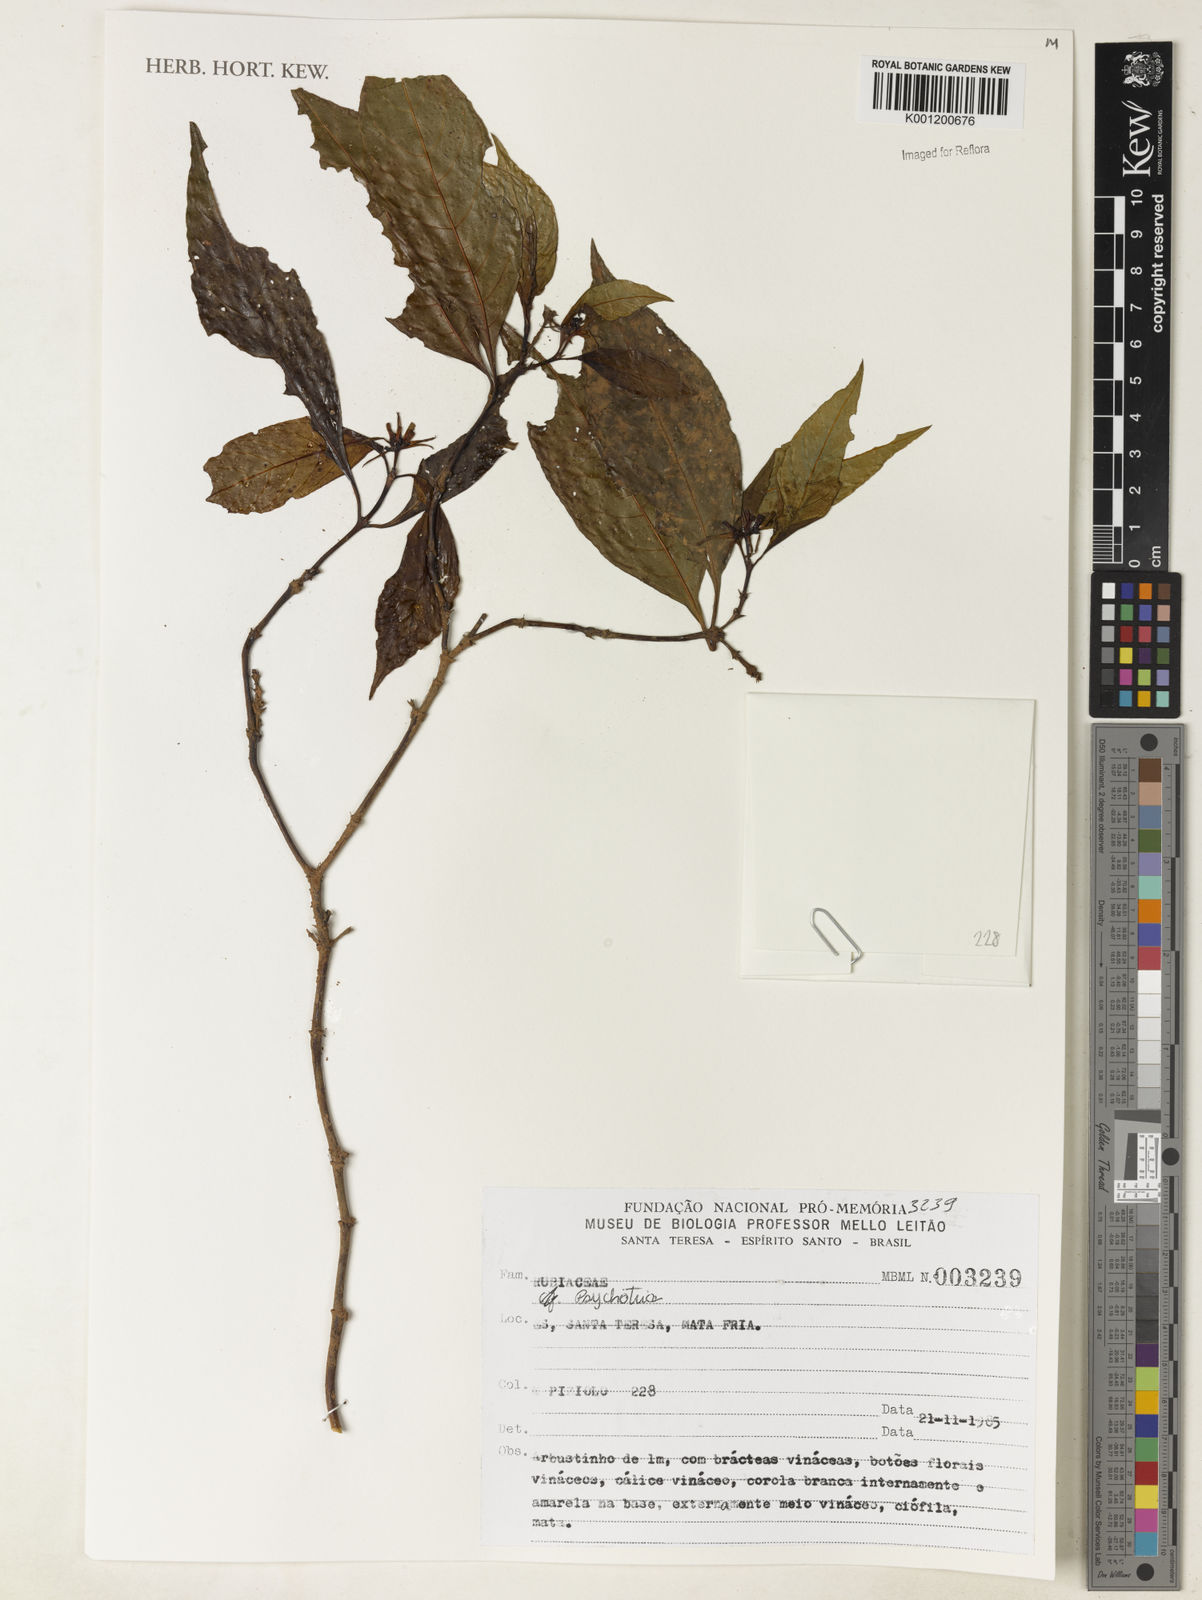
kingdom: Plantae
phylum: Tracheophyta
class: Magnoliopsida
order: Gentianales
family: Rubiaceae
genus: Psychotria
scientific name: Psychotria
